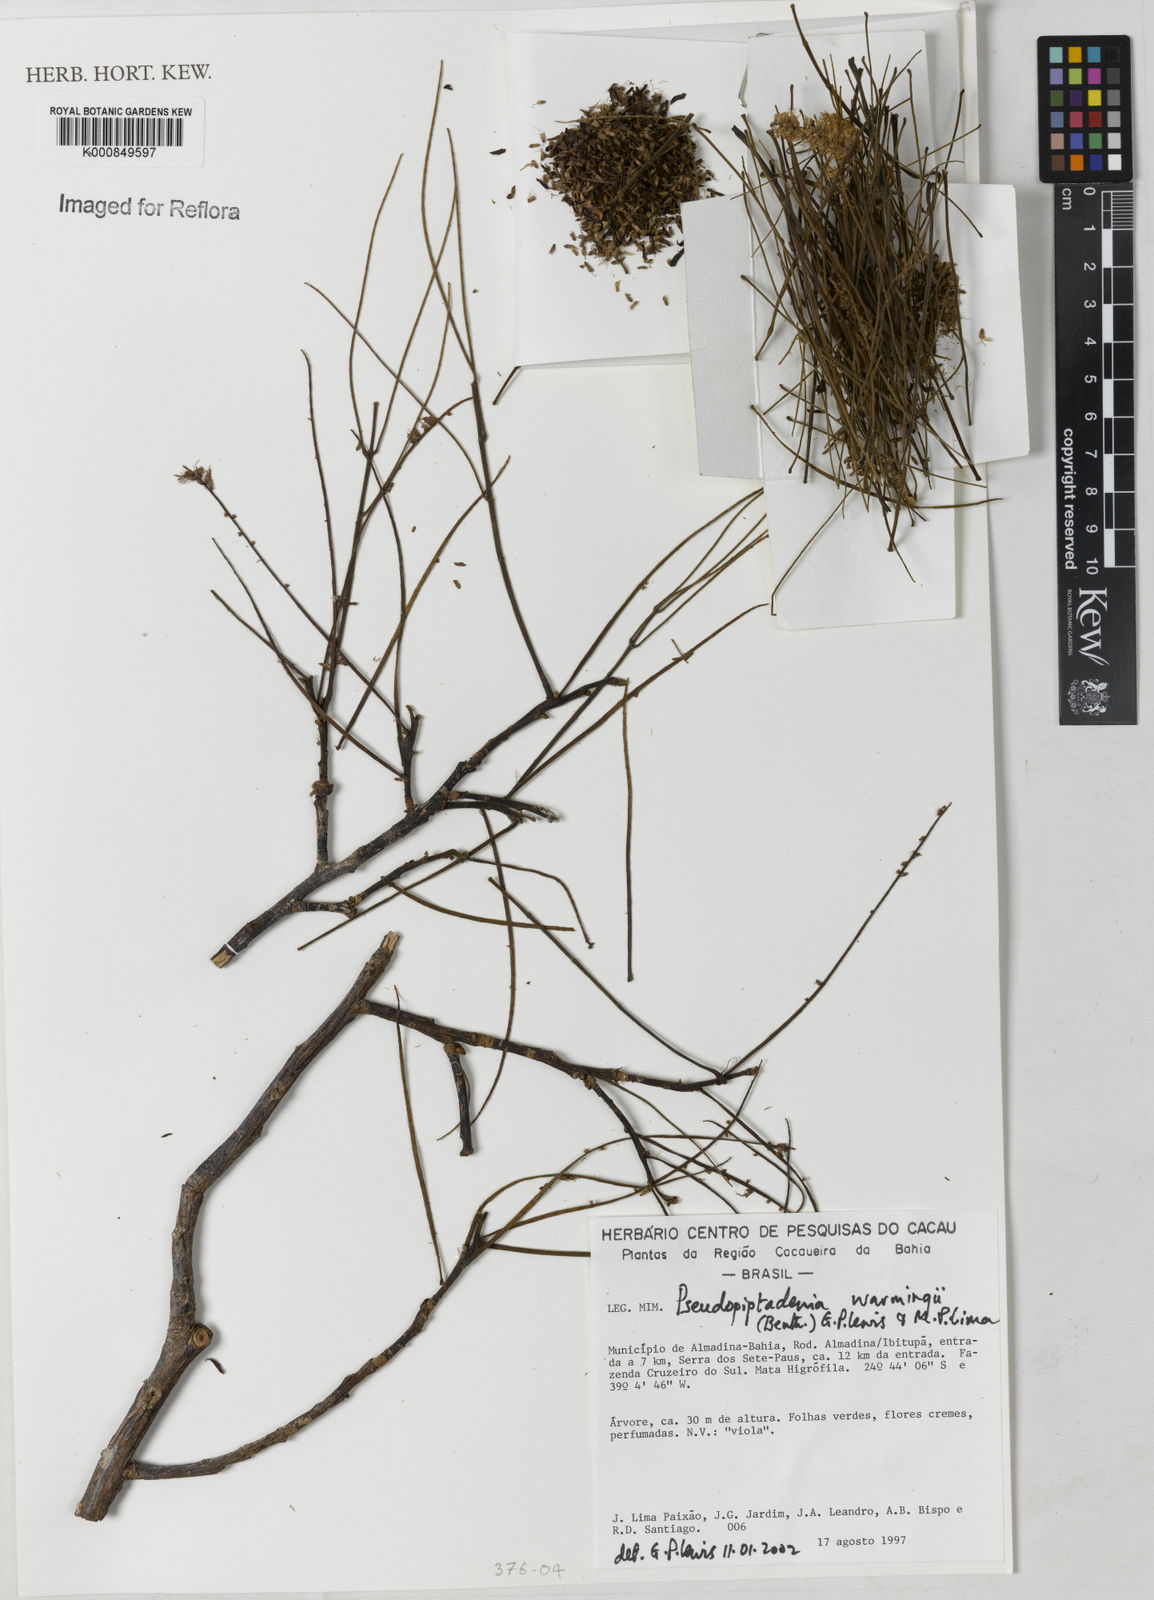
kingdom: Plantae
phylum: Tracheophyta
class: Magnoliopsida
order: Fabales
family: Fabaceae
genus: Pseudopiptadenia
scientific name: Pseudopiptadenia warmingii
